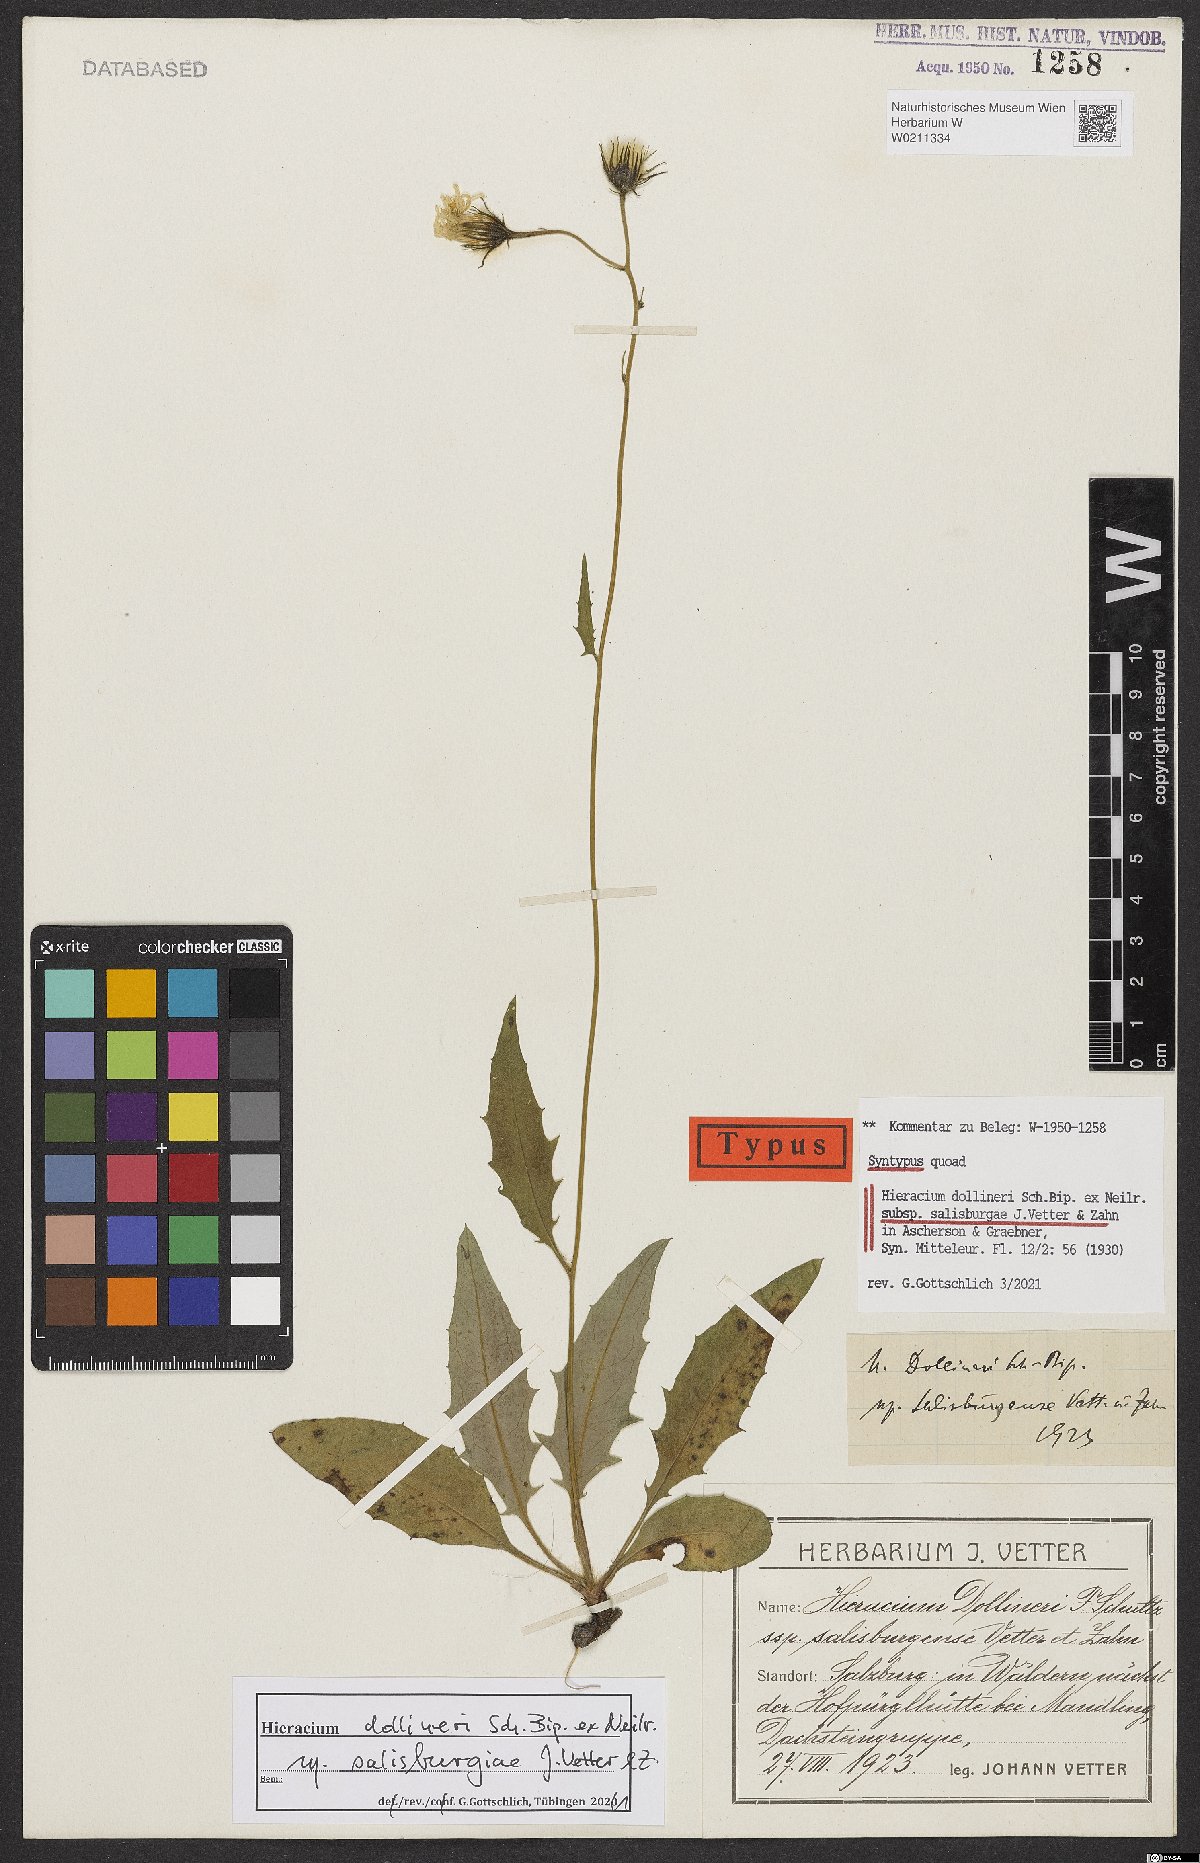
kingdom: Plantae
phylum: Tracheophyta
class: Magnoliopsida
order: Asterales
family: Asteraceae
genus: Hieracium
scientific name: Hieracium dollineri
